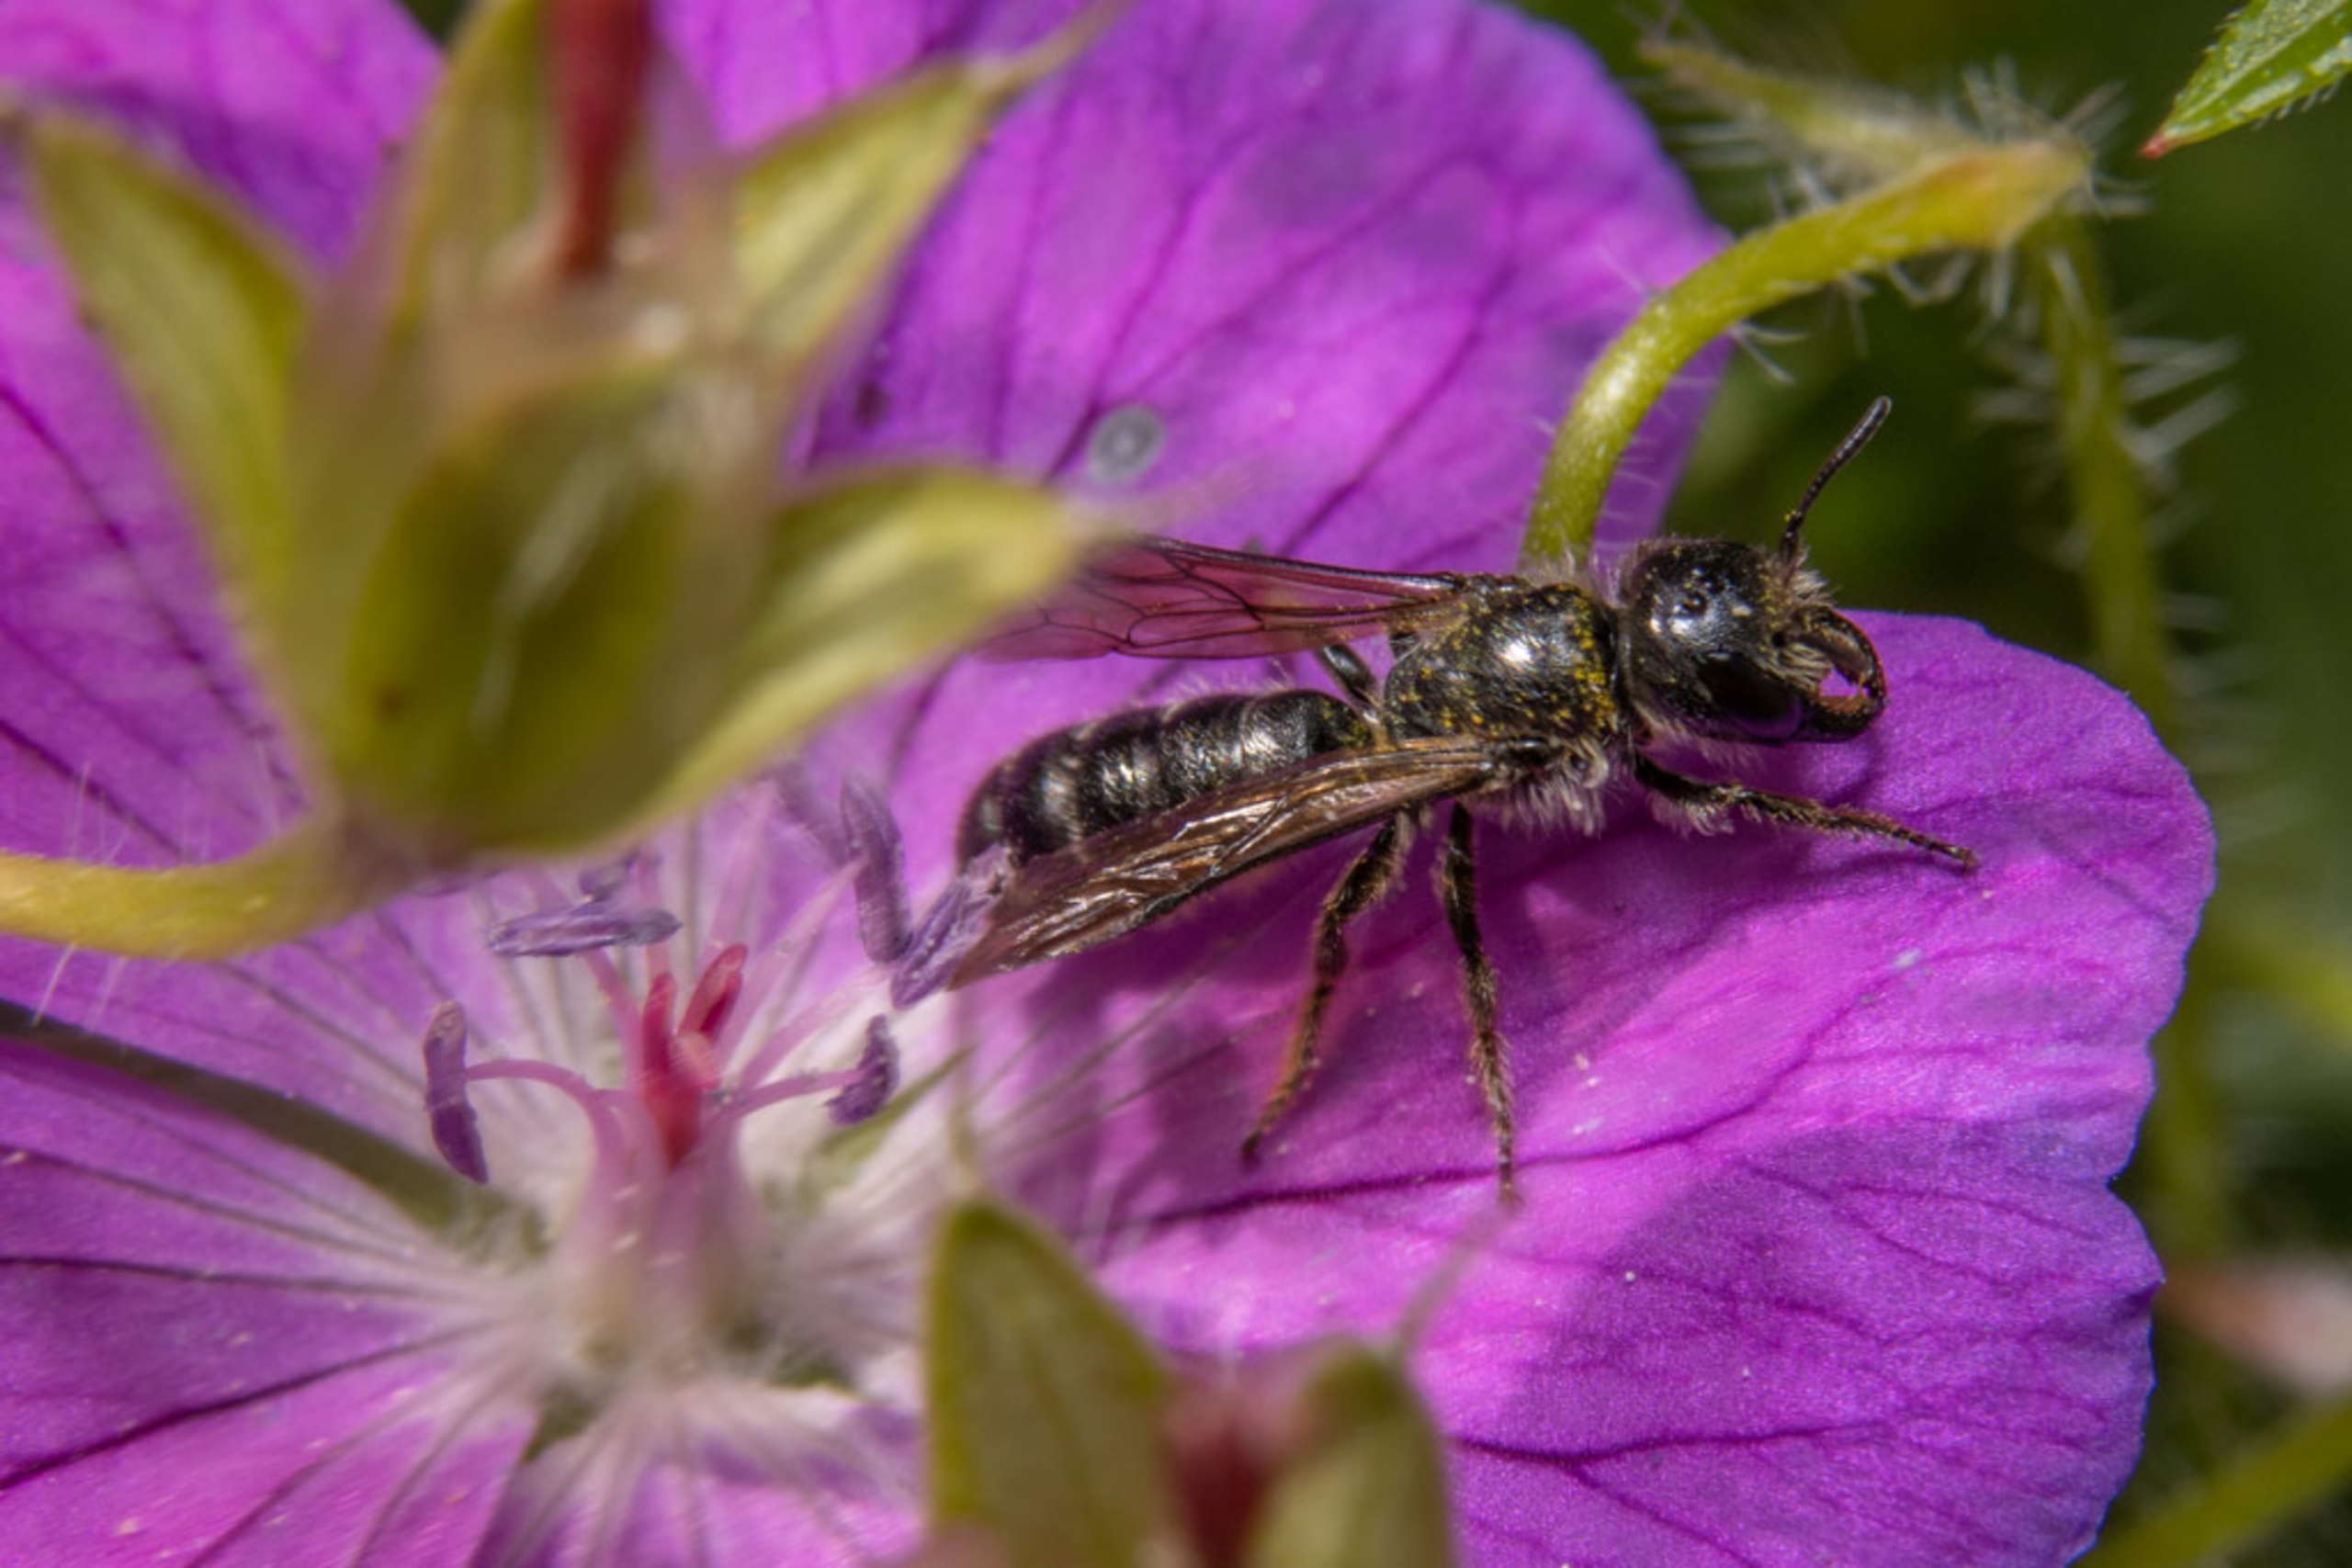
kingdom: Animalia
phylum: Arthropoda
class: Insecta
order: Hymenoptera
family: Megachilidae
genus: Chelostoma
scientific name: Chelostoma florisomne
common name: Ranunkelsaksebi
